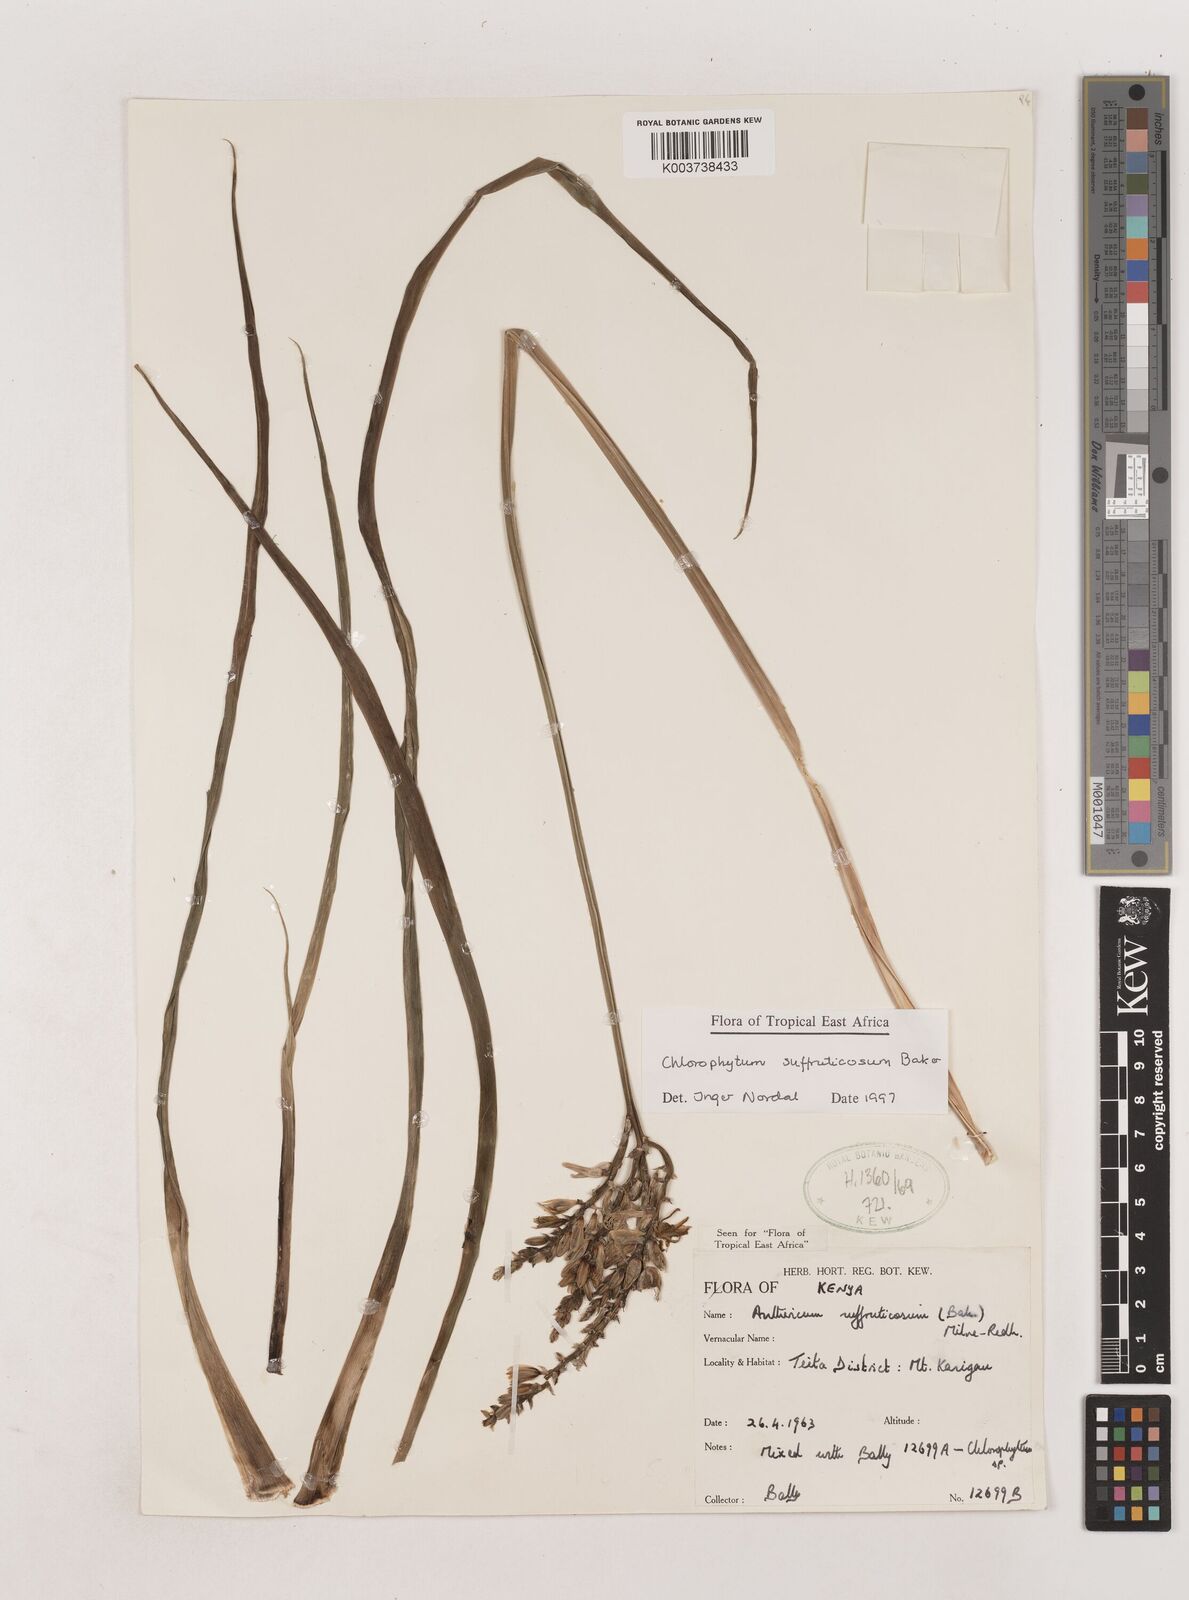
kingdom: Plantae
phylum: Tracheophyta
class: Liliopsida
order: Asparagales
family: Asparagaceae
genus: Chlorophytum
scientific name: Chlorophytum suffruticosum
